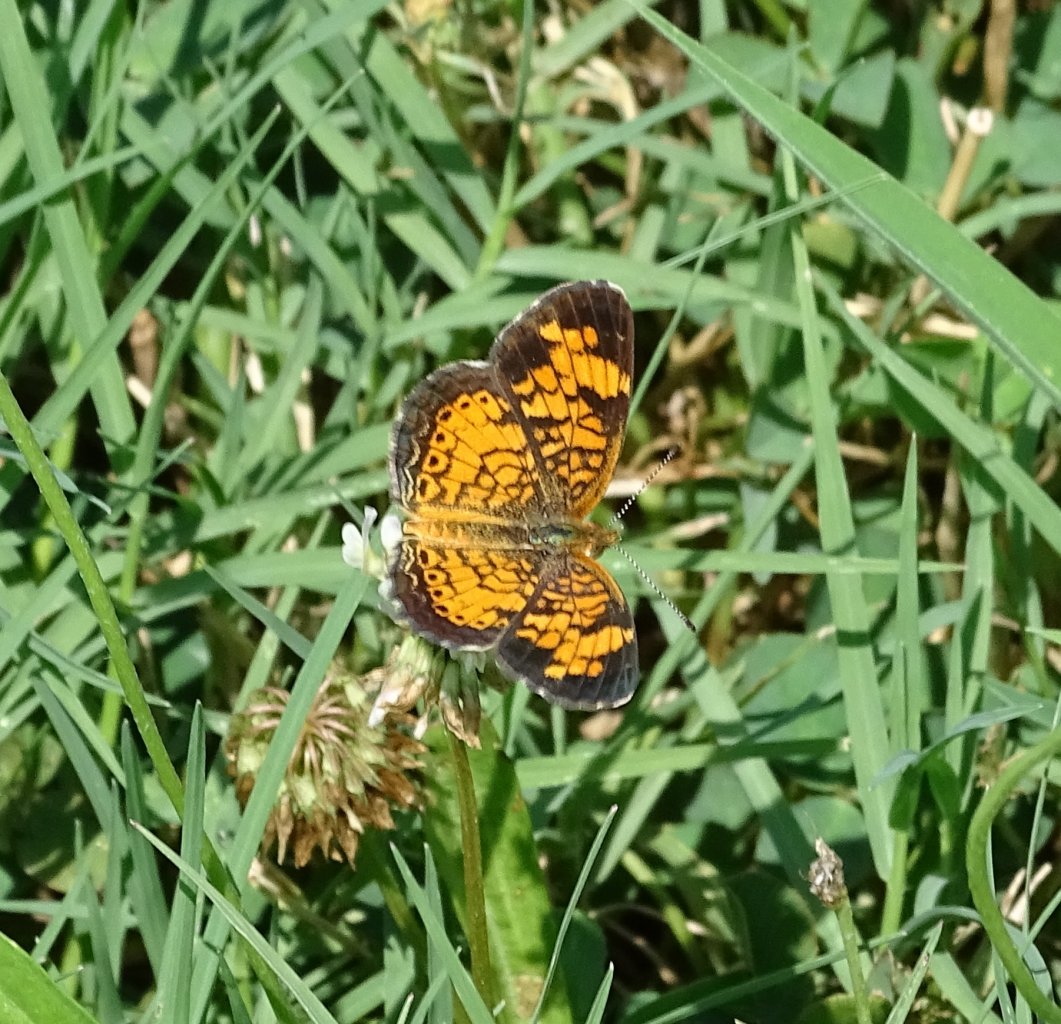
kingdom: Animalia
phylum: Arthropoda
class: Insecta
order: Lepidoptera
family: Nymphalidae
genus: Phyciodes
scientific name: Phyciodes tharos
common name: Pearl Crescent
